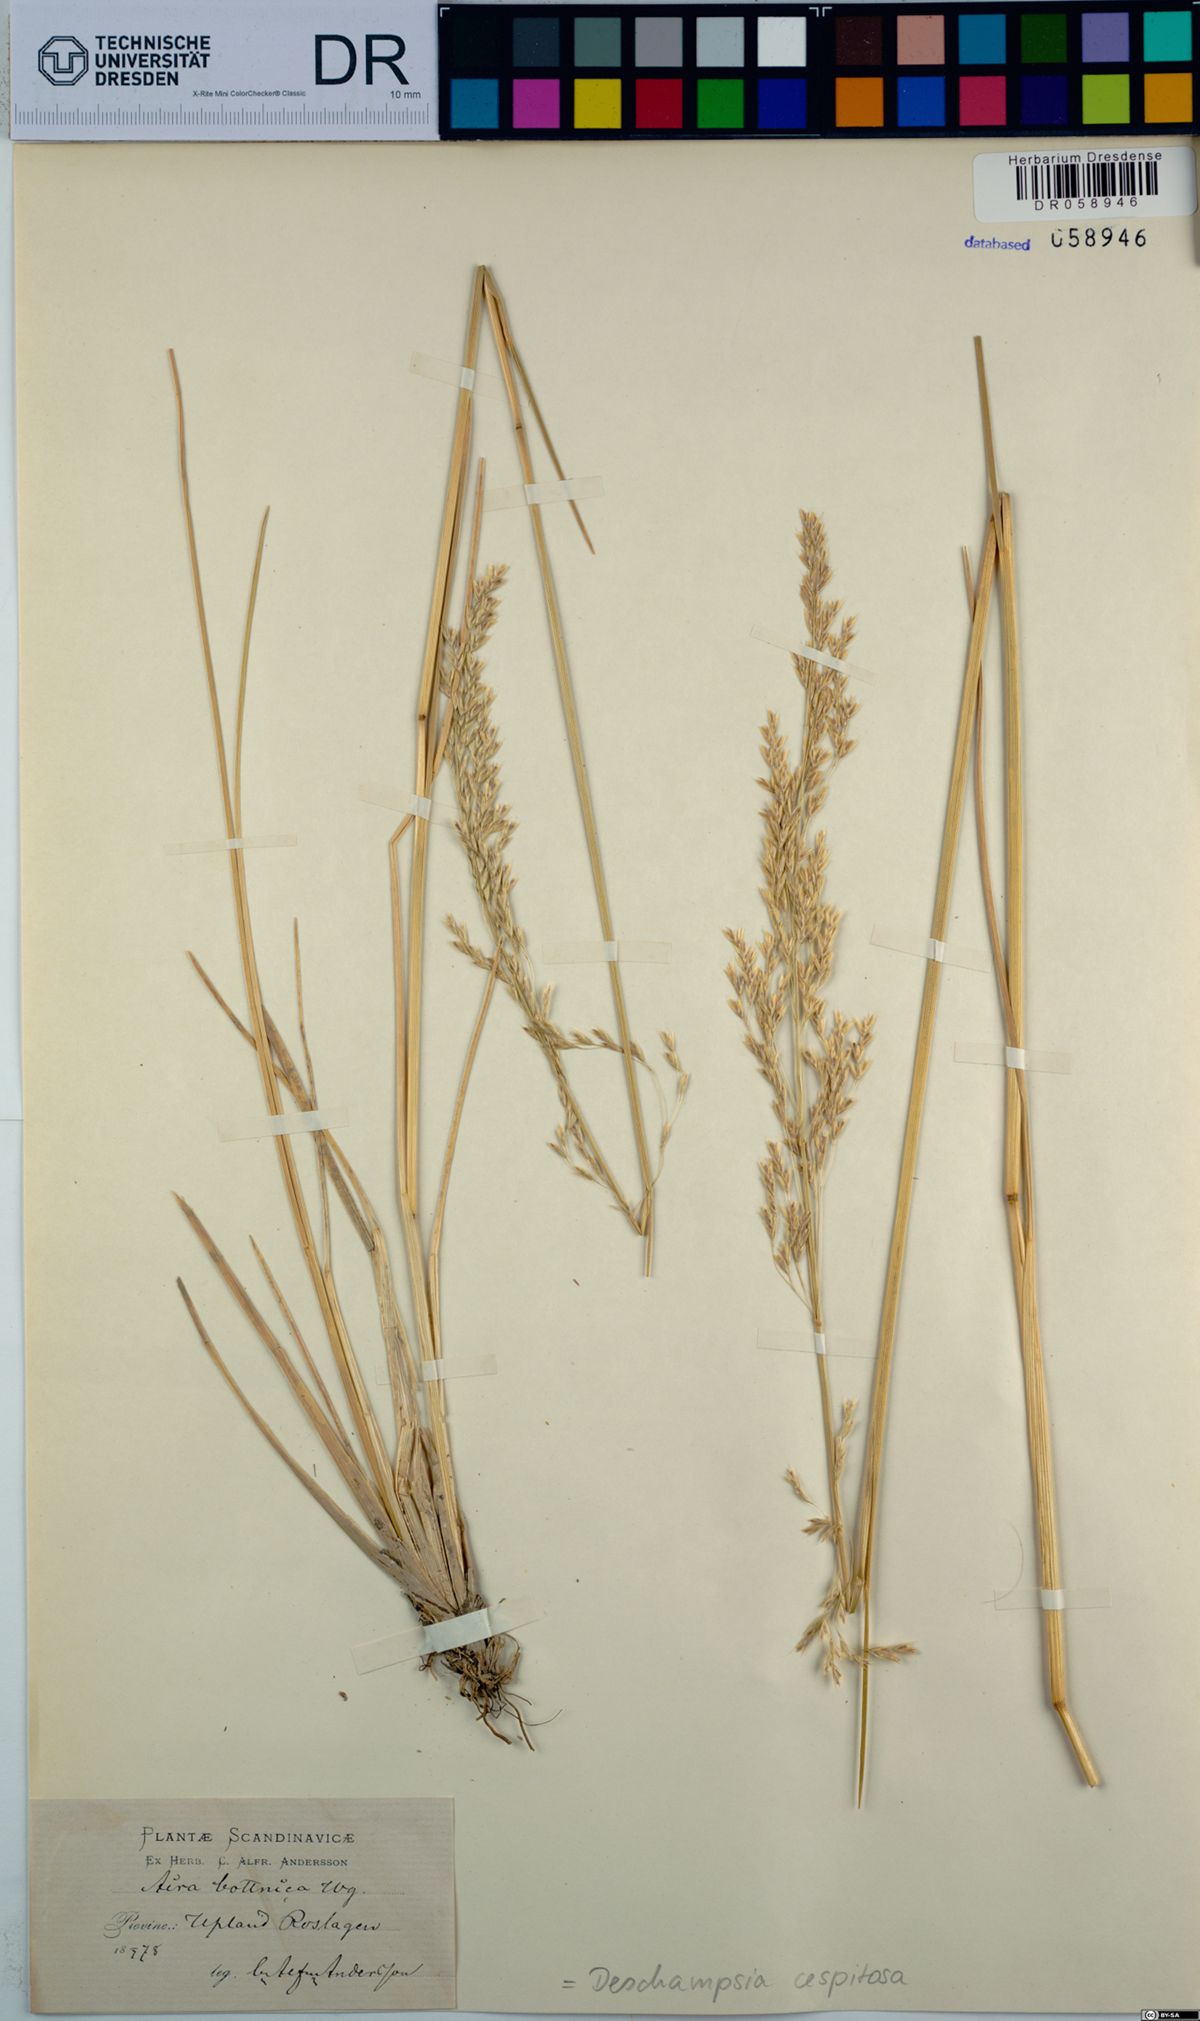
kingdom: Plantae
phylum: Tracheophyta
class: Liliopsida
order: Poales
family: Poaceae
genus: Deschampsia
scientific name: Deschampsia cespitosa
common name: Tufted hair-grass
